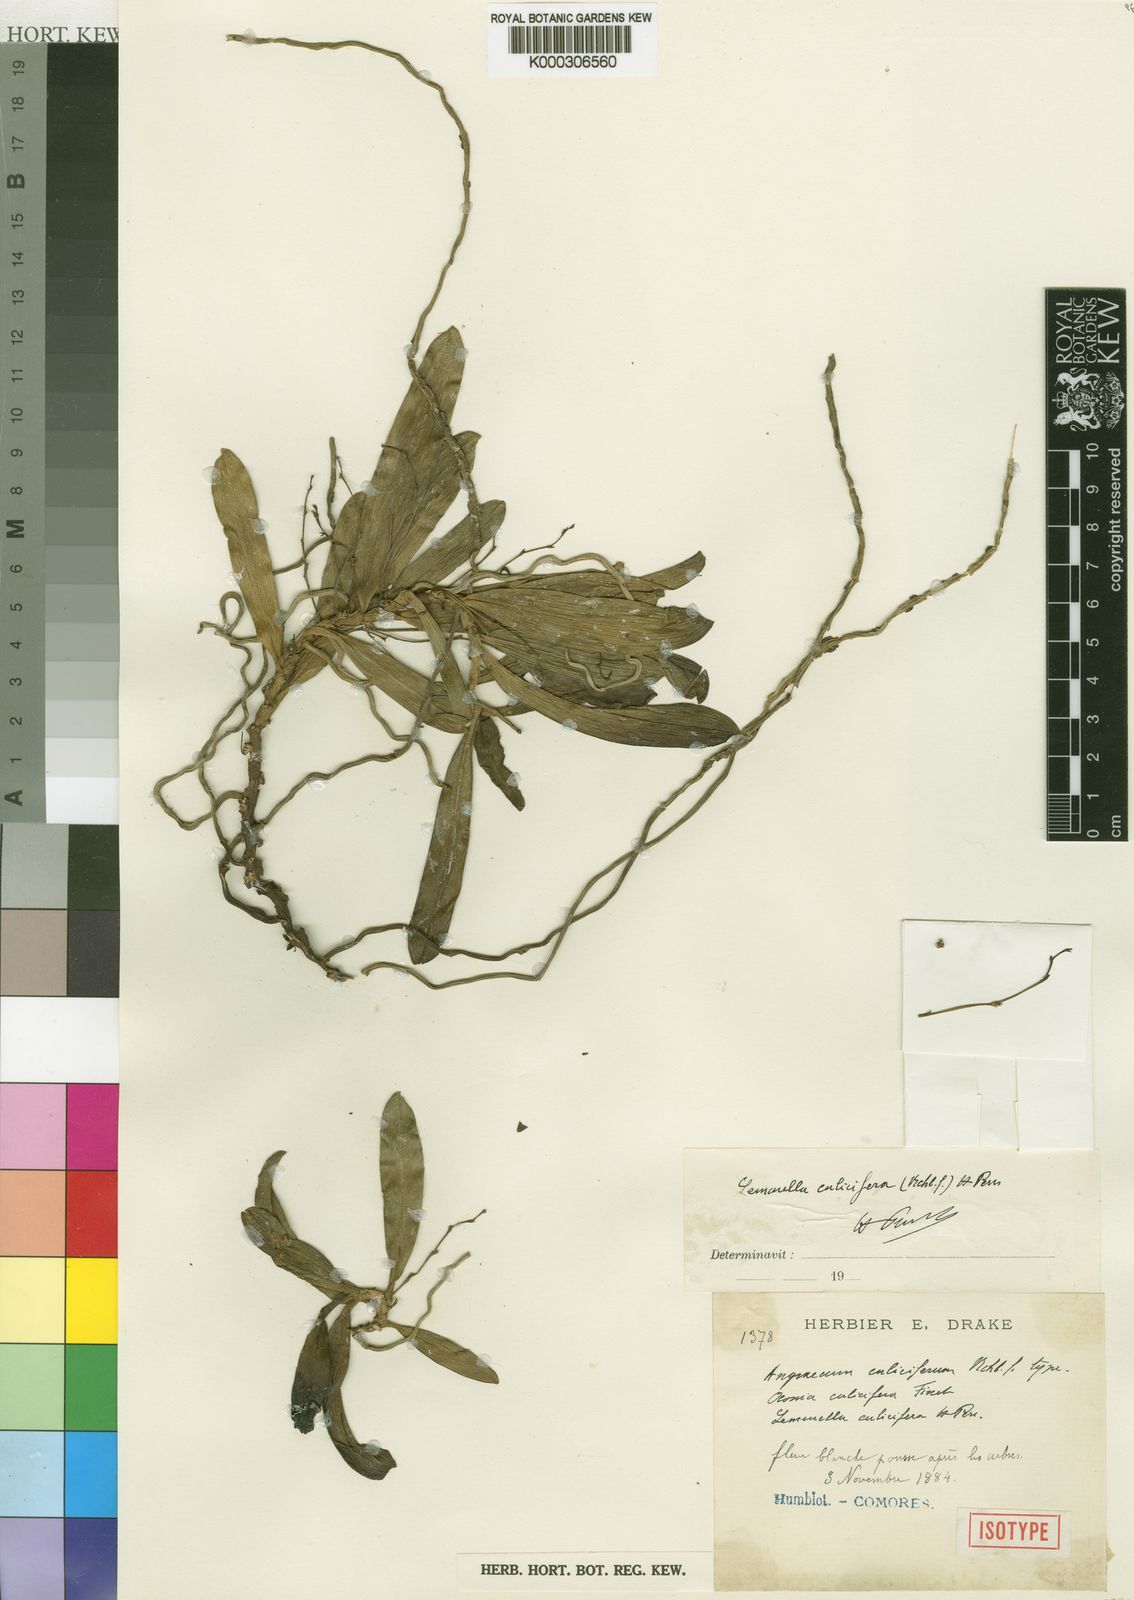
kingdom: Plantae
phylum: Tracheophyta
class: Liliopsida
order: Asparagales
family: Orchidaceae
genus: Lemurella
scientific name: Lemurella culicifera
